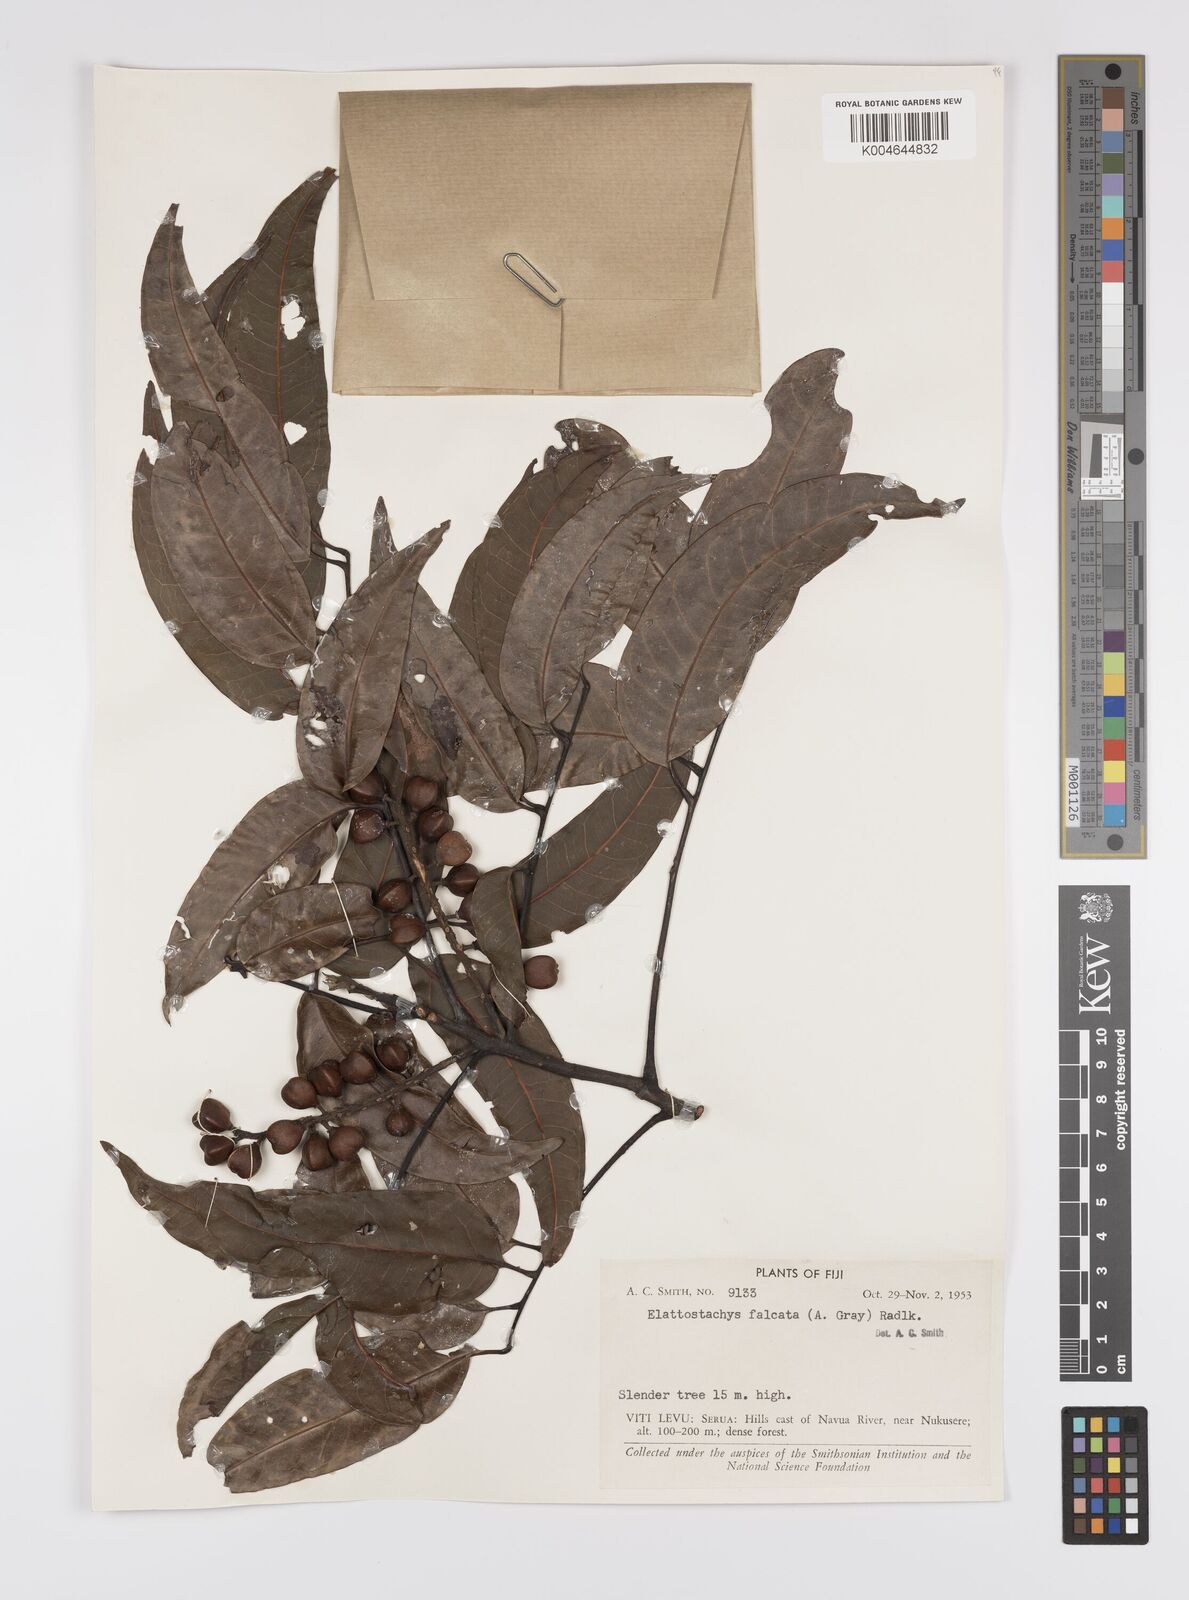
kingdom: Plantae
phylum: Tracheophyta
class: Magnoliopsida
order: Sapindales
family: Sapindaceae
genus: Elattostachys
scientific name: Elattostachys apetala
